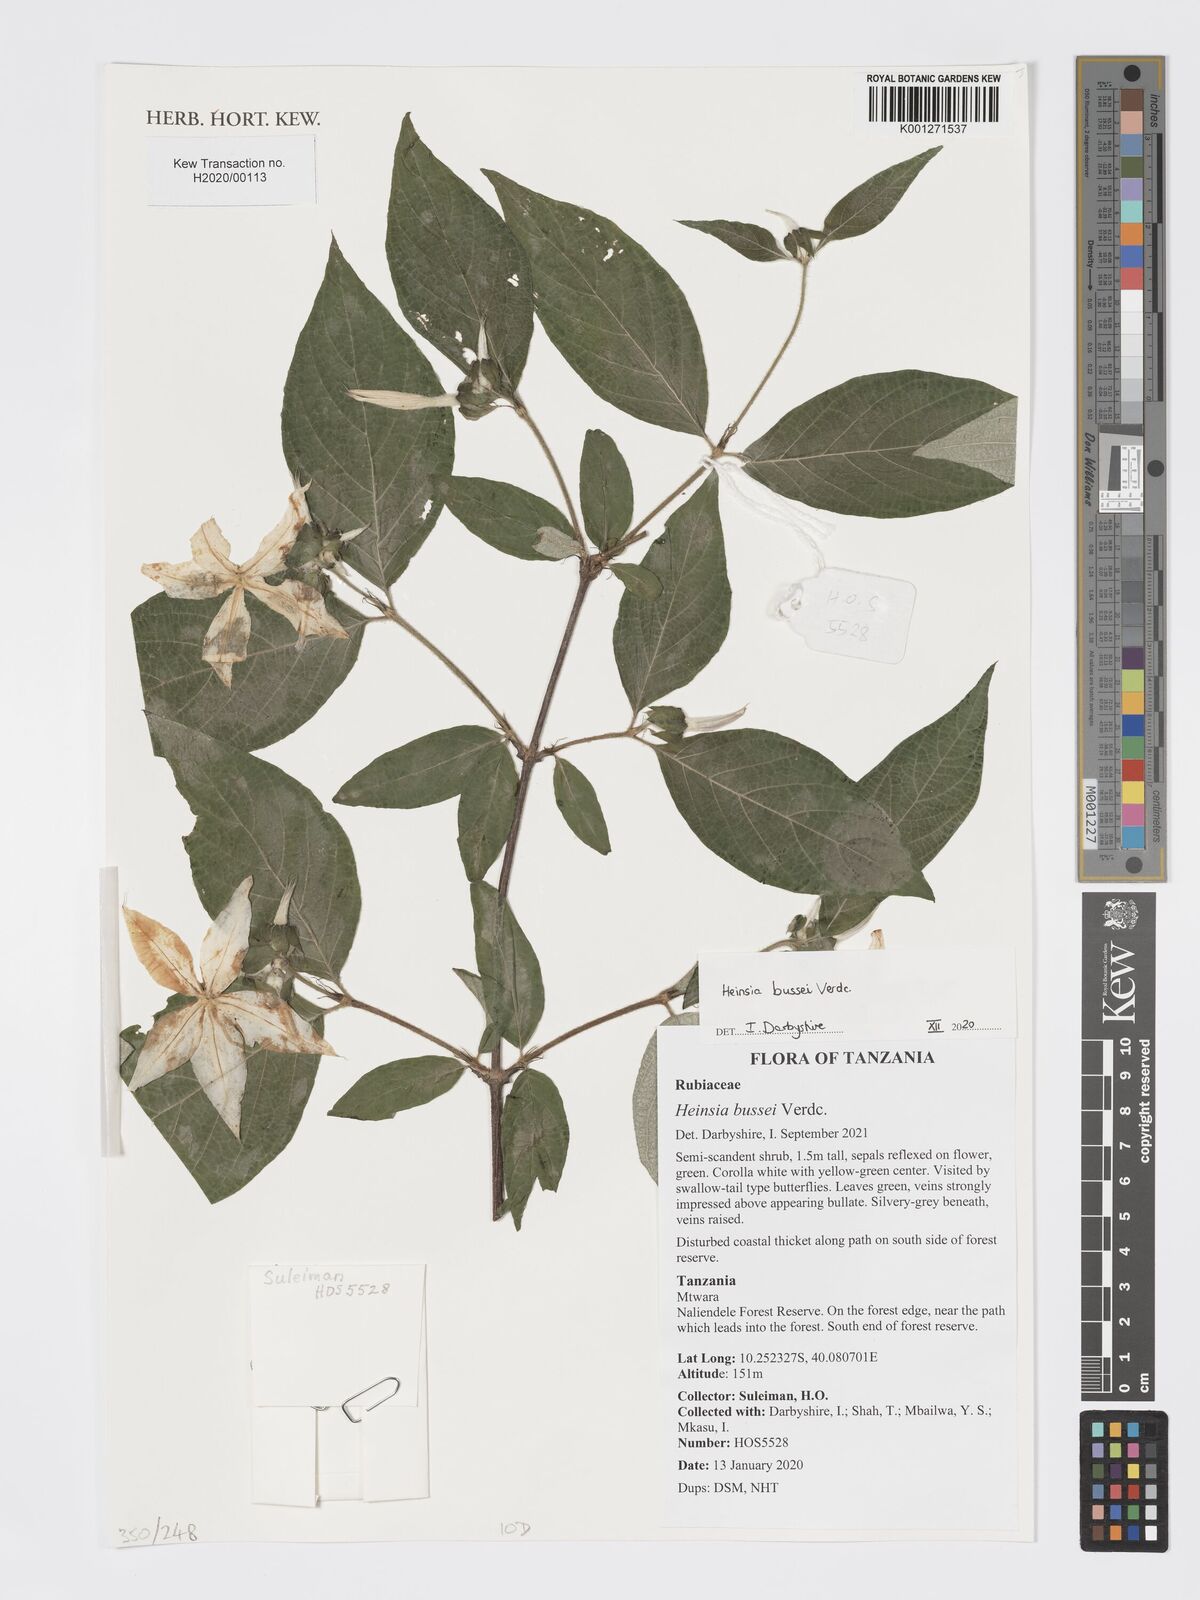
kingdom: Plantae
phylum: Tracheophyta
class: Magnoliopsida
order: Gentianales
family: Rubiaceae
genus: Heinsia
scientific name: Heinsia bussei
